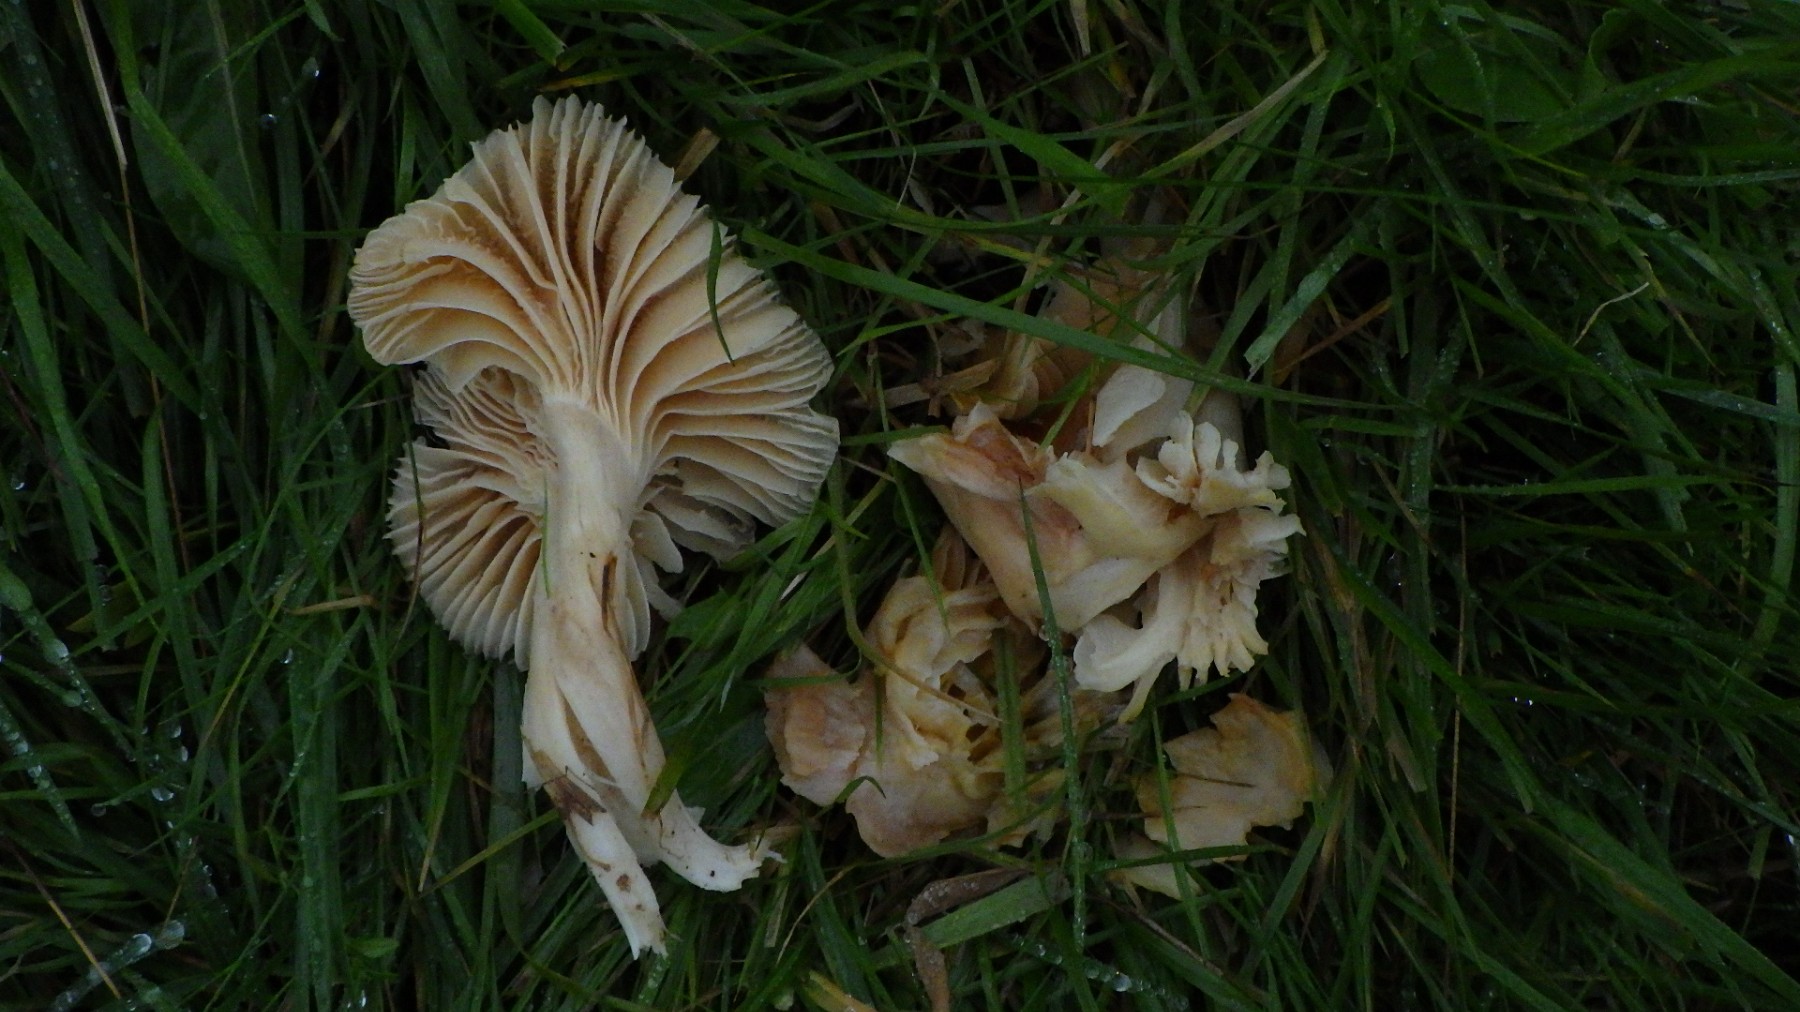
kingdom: Fungi
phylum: Basidiomycota
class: Agaricomycetes
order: Agaricales
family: Hygrophoraceae
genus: Cuphophyllus
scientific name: Cuphophyllus pratensis
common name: eng-vokshat
